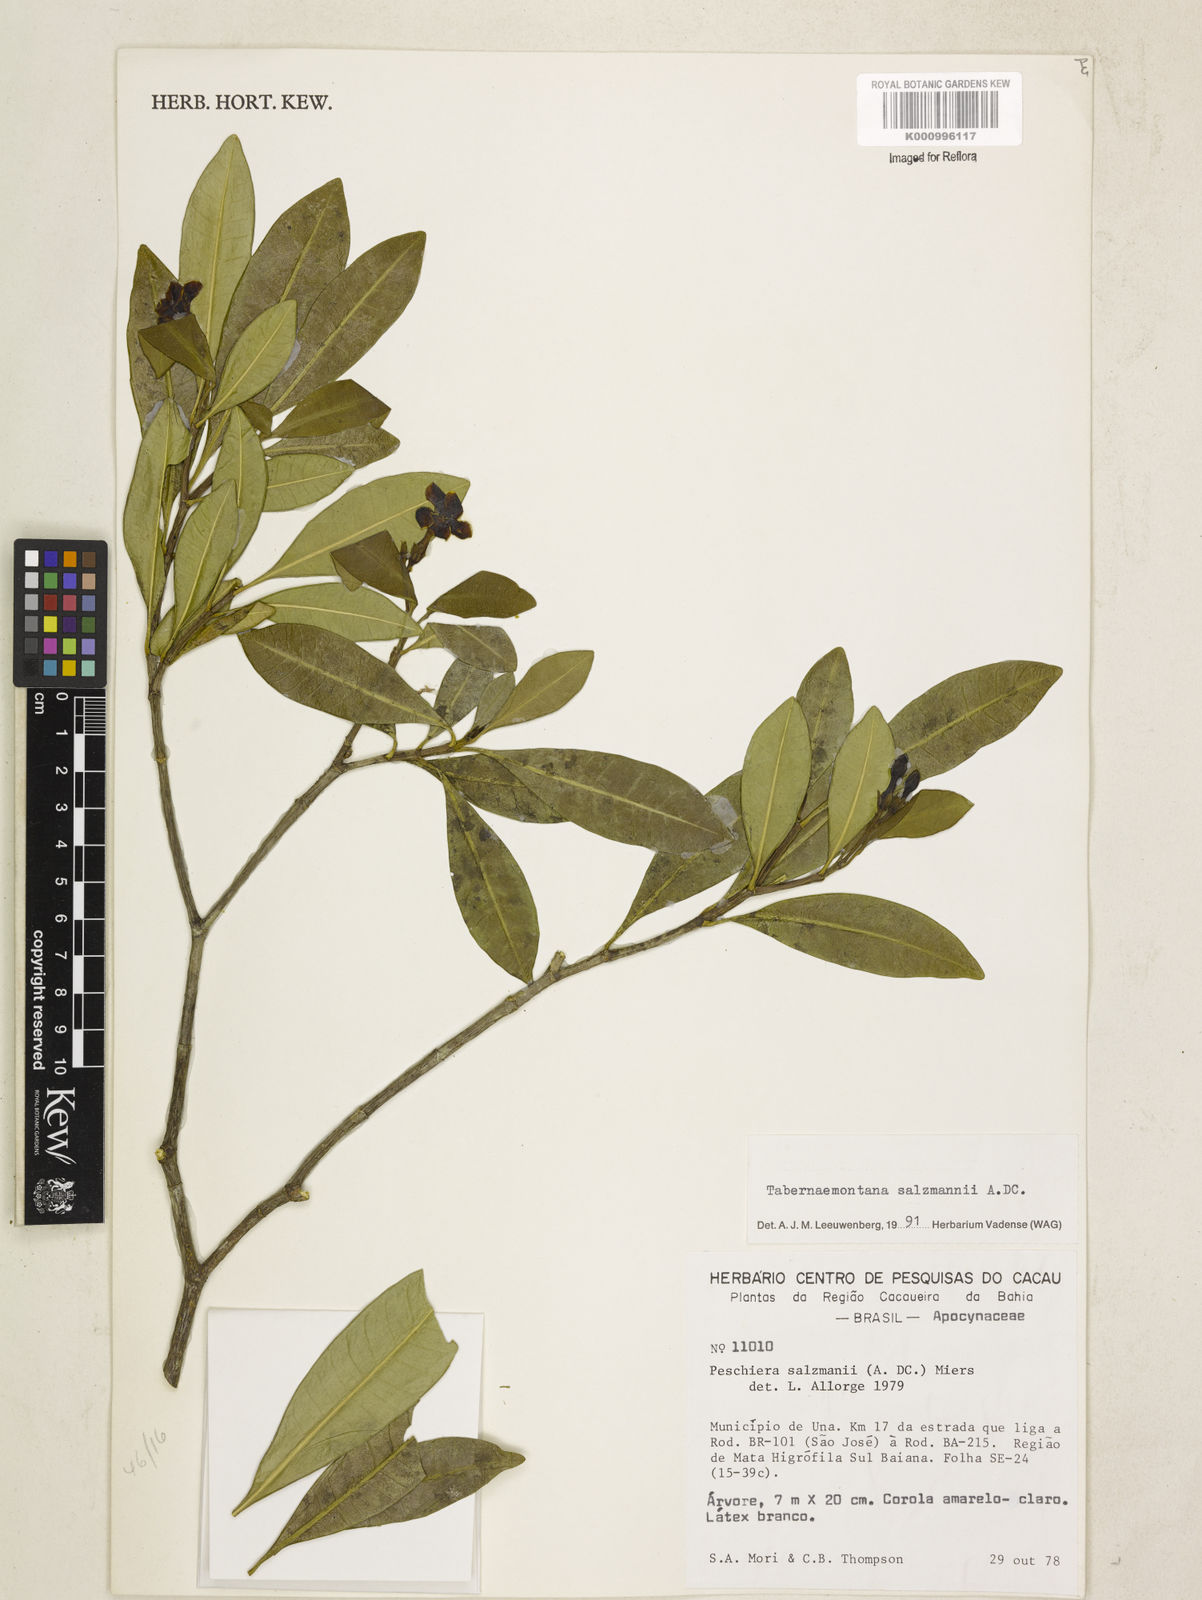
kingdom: Plantae
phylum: Tracheophyta
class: Magnoliopsida
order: Gentianales
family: Apocynaceae
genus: Tabernaemontana
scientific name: Tabernaemontana salzmannii
